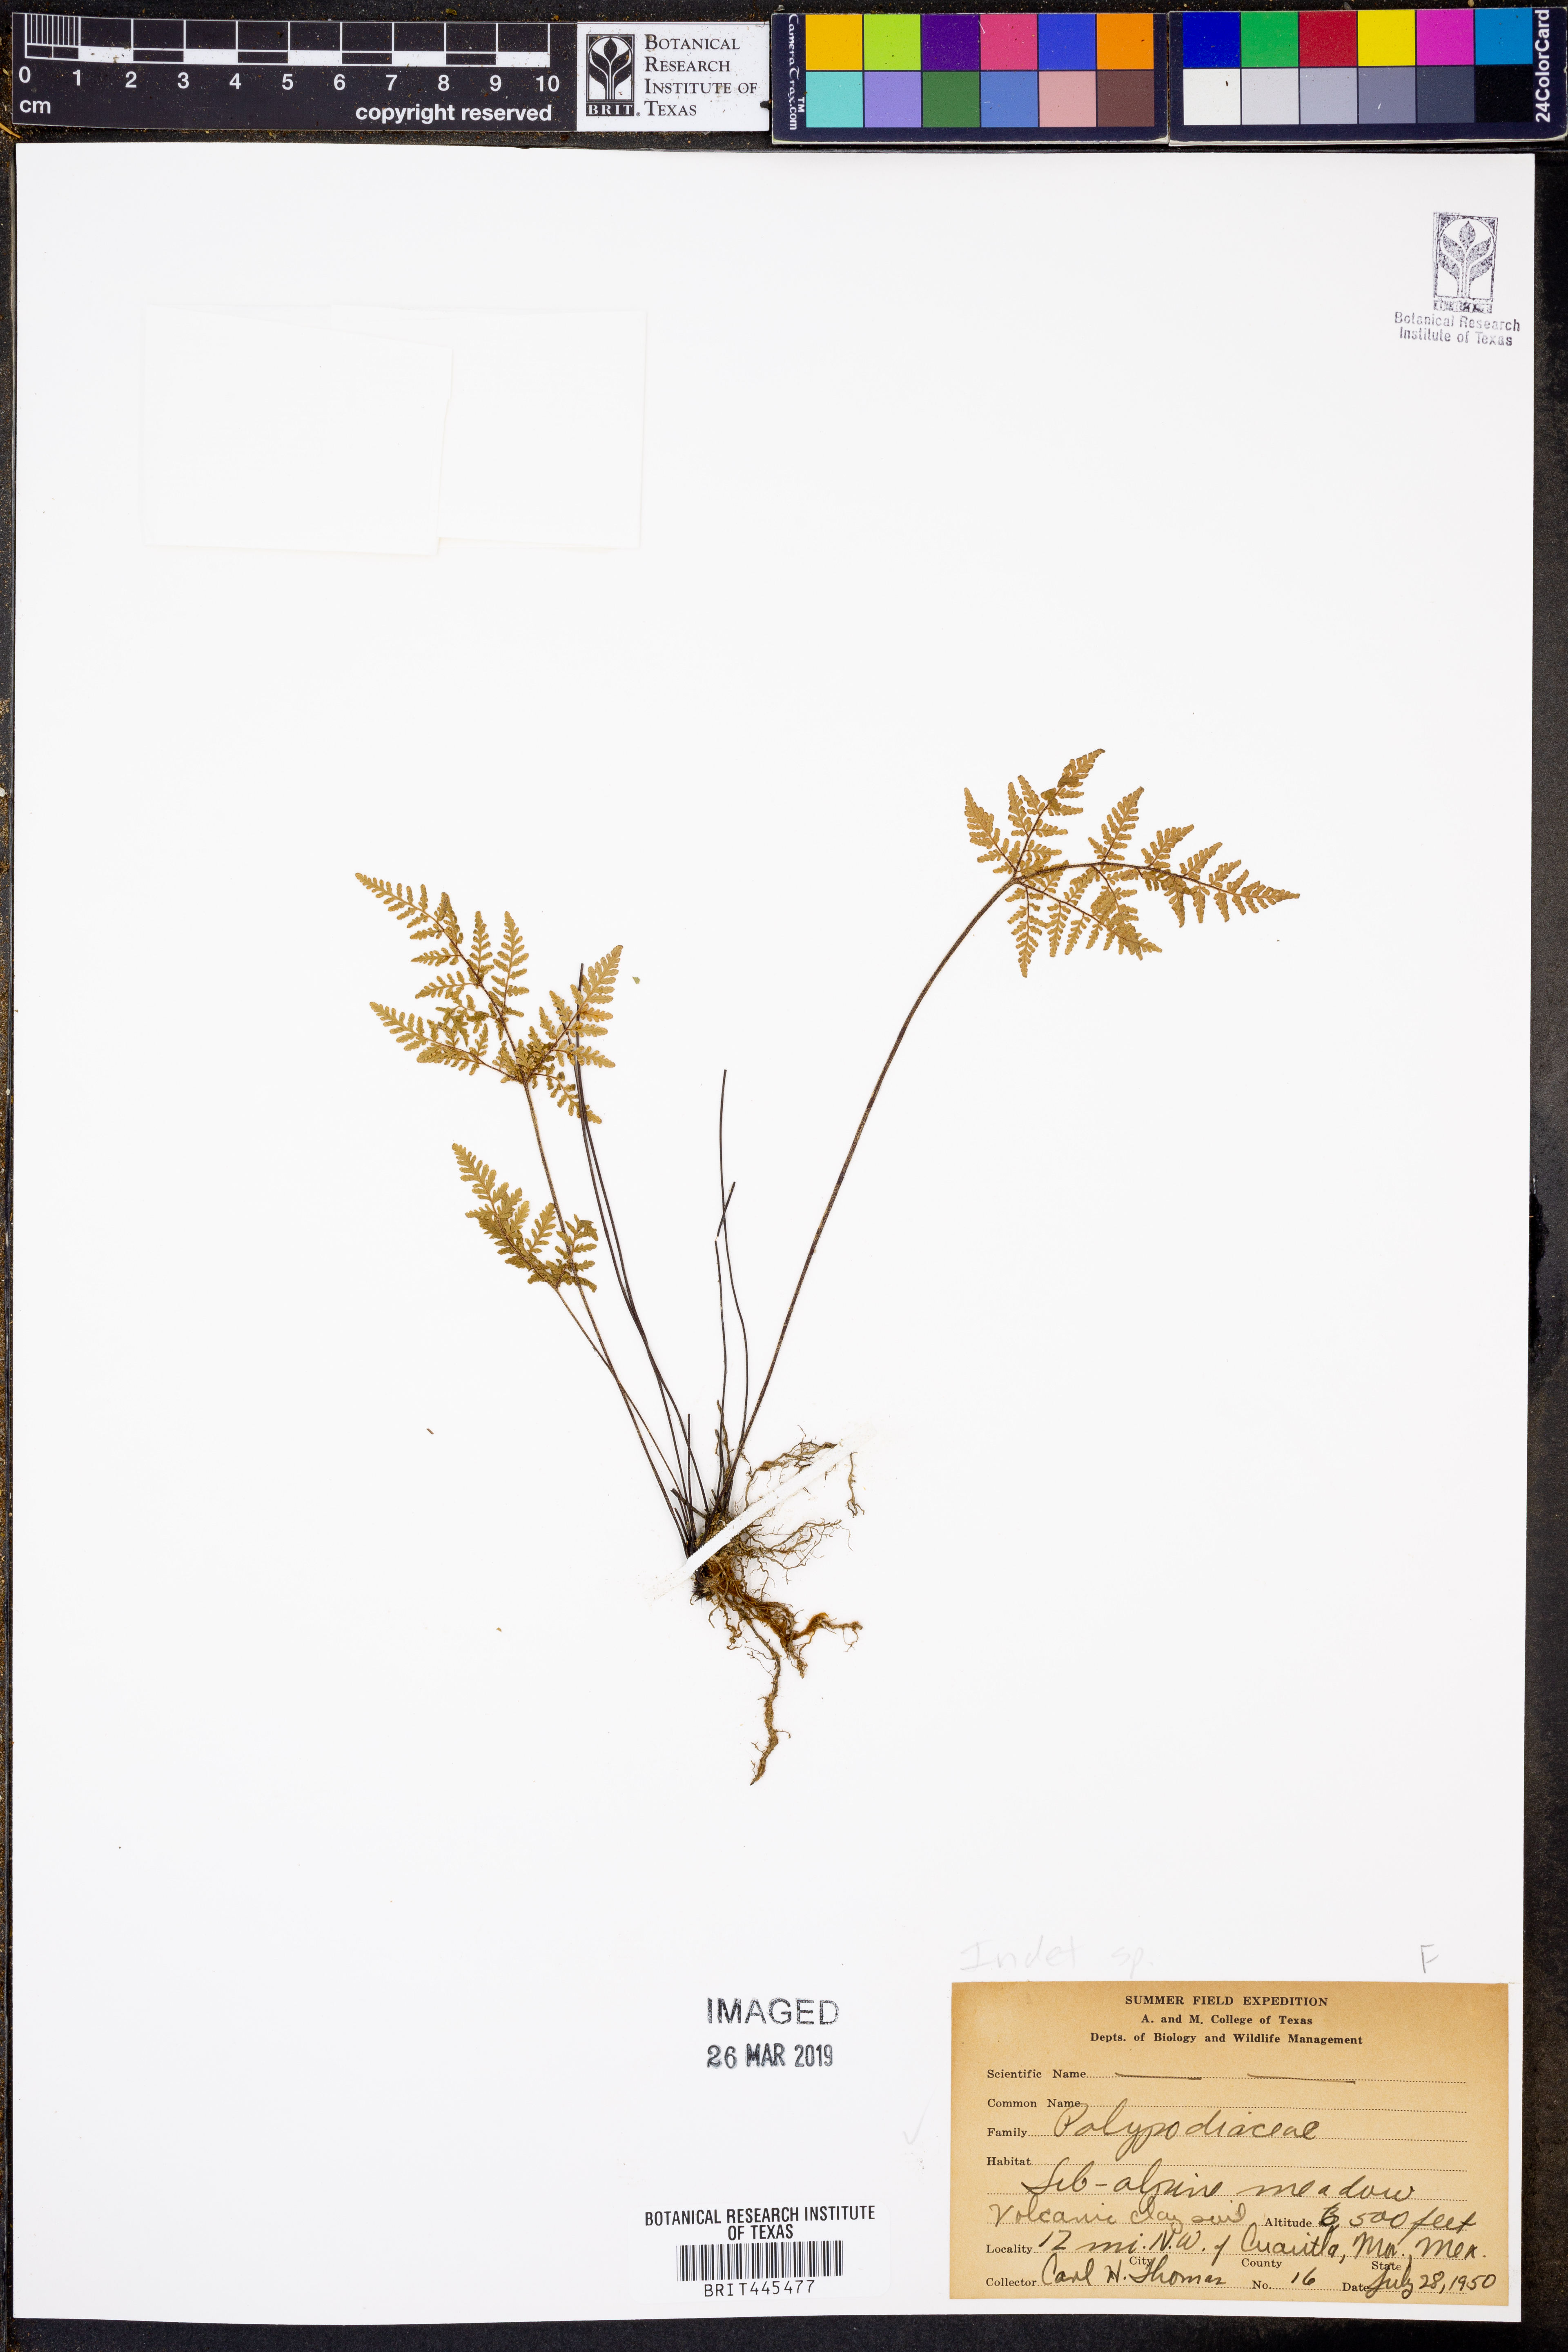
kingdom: Plantae
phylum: Tracheophyta
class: Polypodiopsida
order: Polypodiales
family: Polypodiaceae
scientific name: Polypodiaceae
